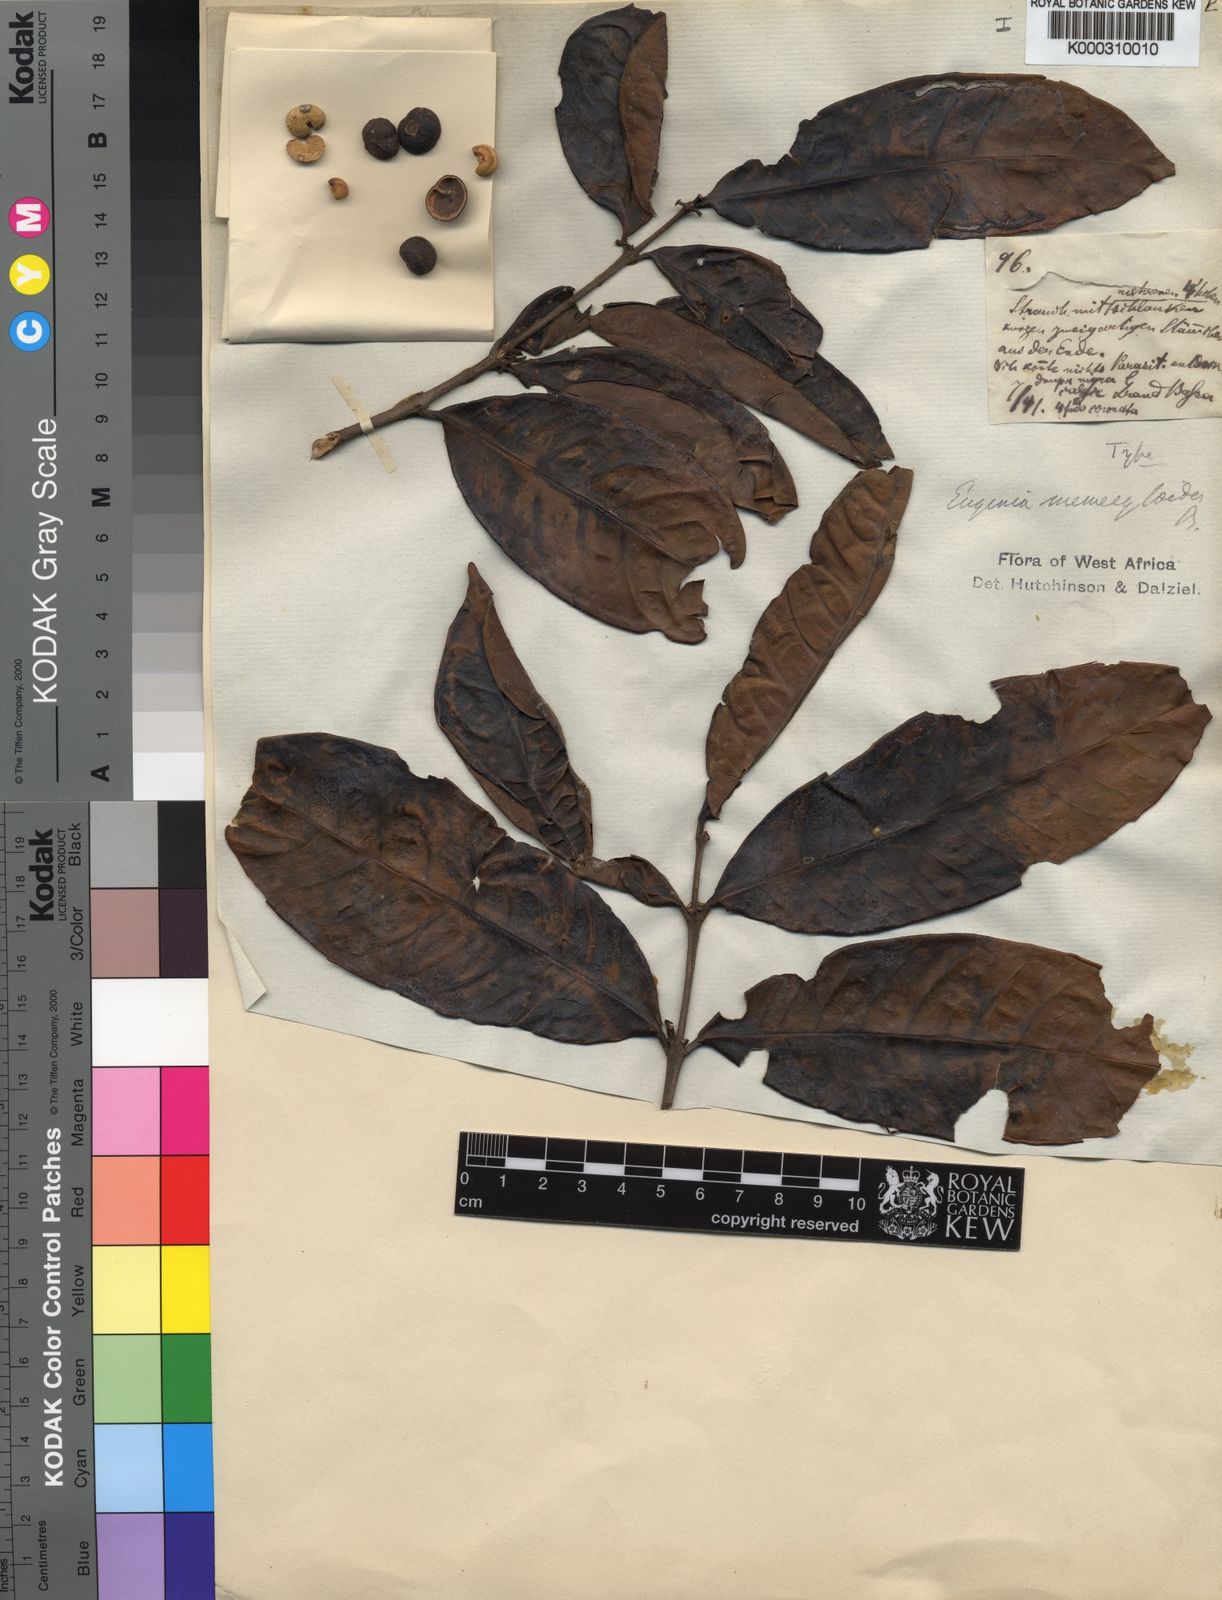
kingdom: Plantae
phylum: Tracheophyta
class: Magnoliopsida
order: Myrtales
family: Myrtaceae
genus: Eugenia
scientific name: Eugenia memecyloides
